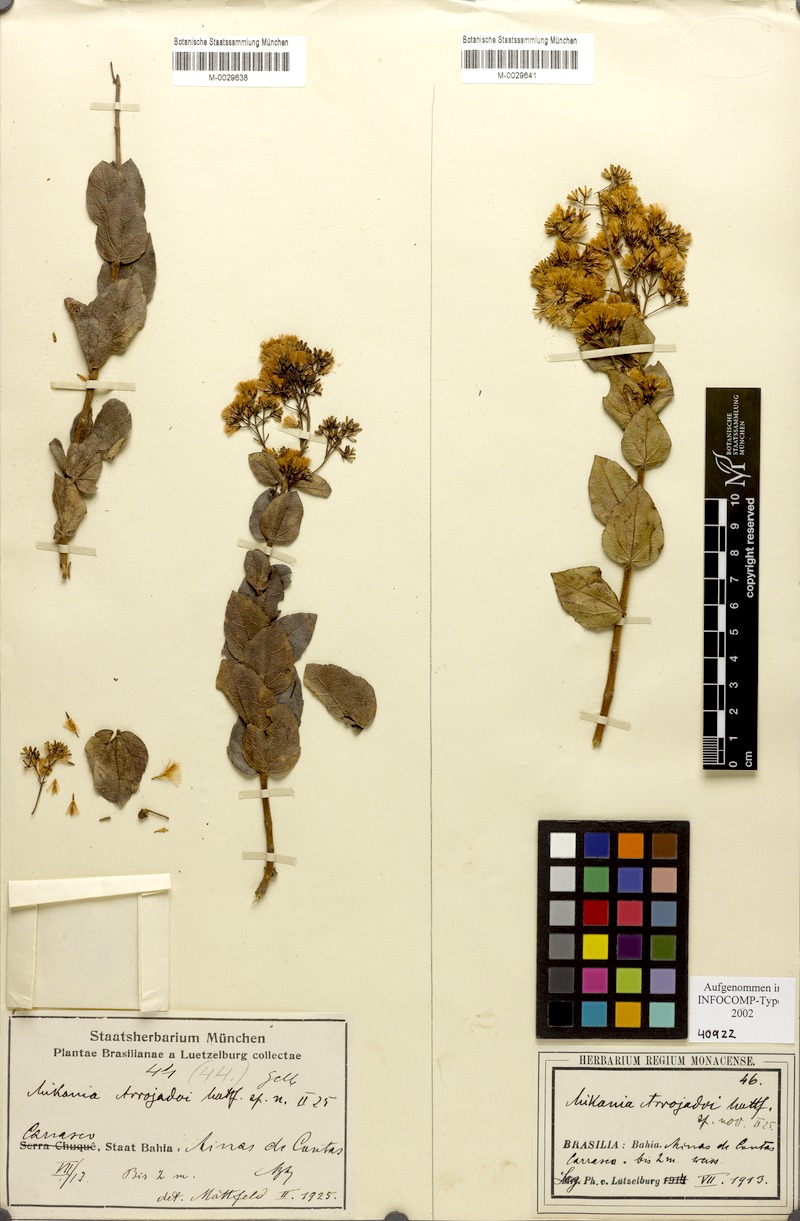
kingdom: Plantae
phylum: Tracheophyta
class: Magnoliopsida
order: Asterales
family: Asteraceae
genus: Mikania
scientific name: Mikania arrojadoi
